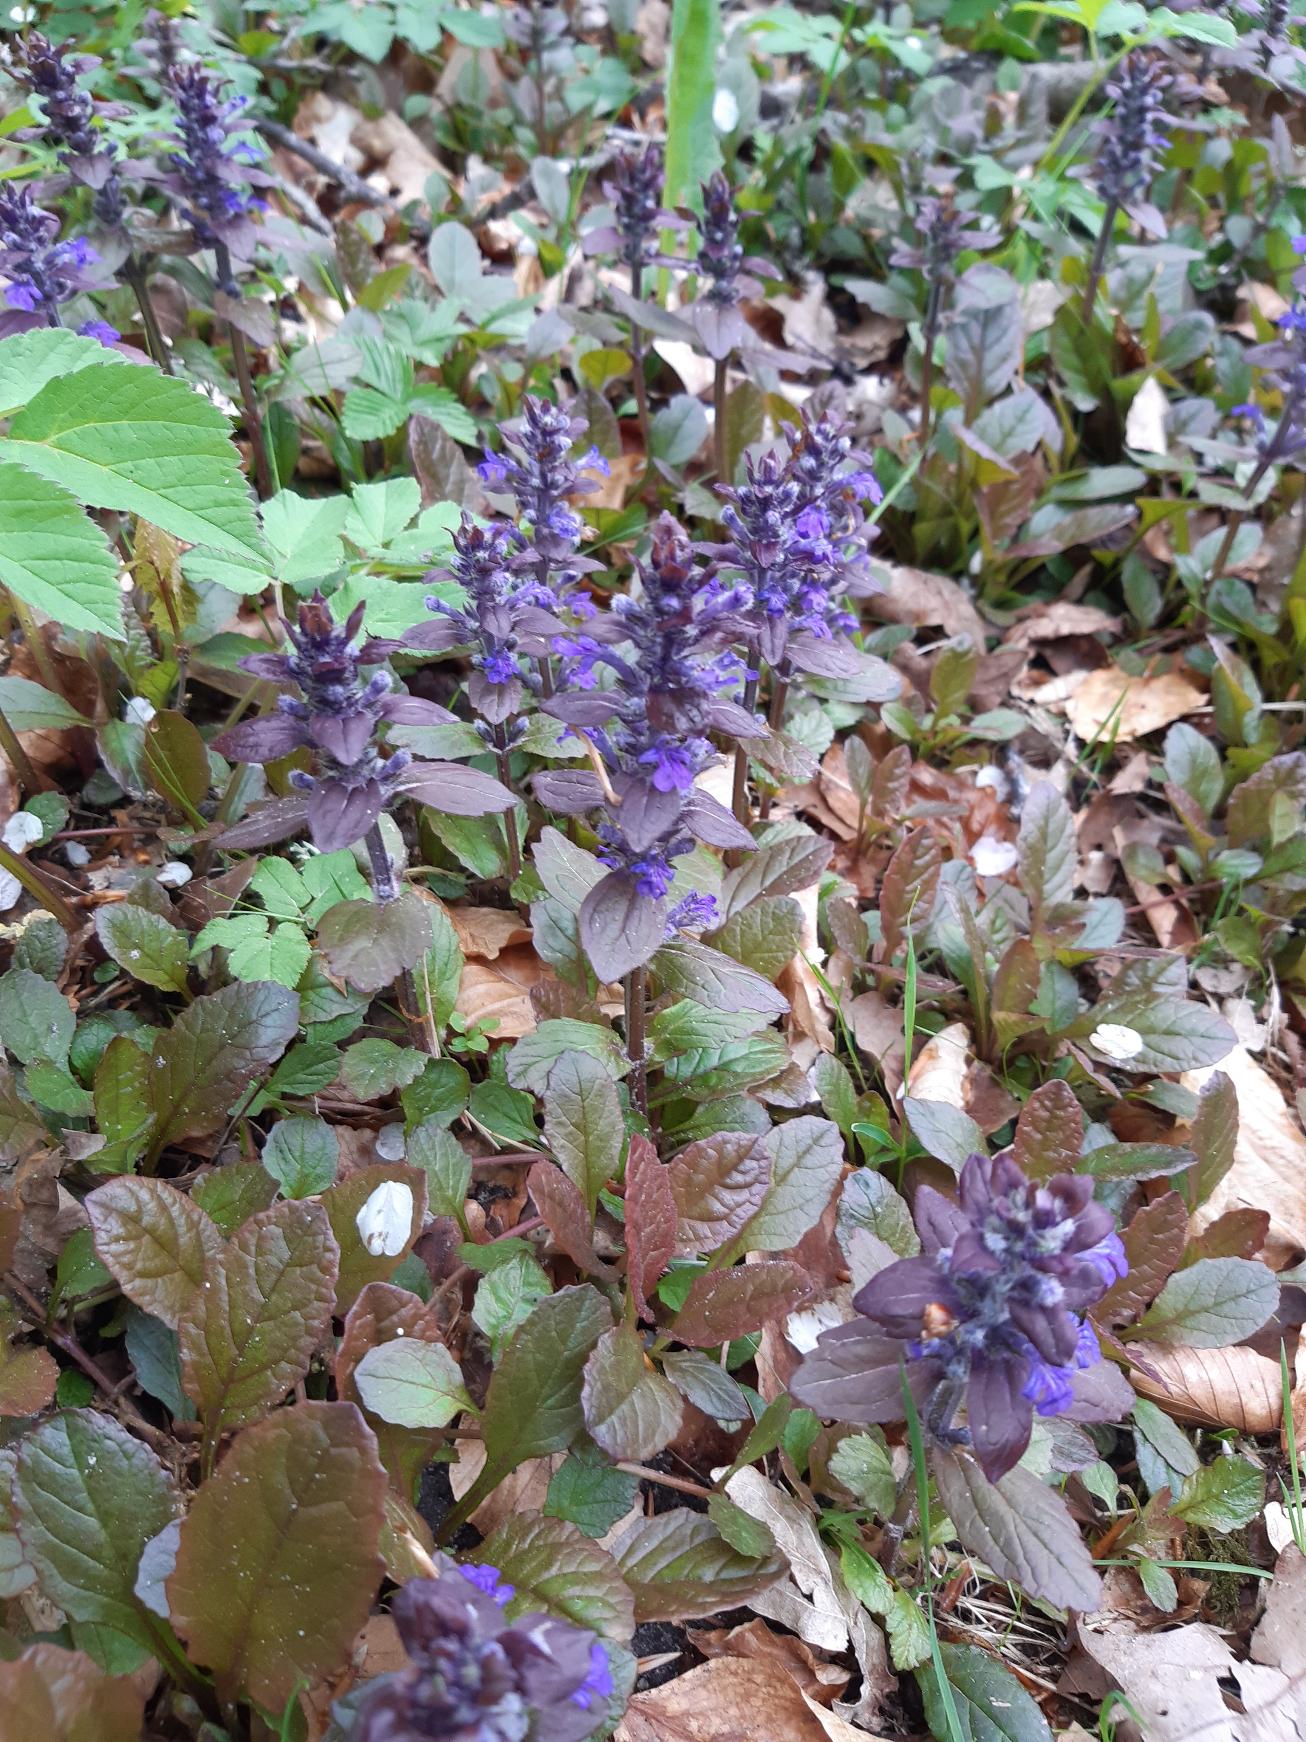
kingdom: Plantae
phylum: Tracheophyta
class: Magnoliopsida
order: Lamiales
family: Lamiaceae
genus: Ajuga
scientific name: Ajuga reptans
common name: Krybende læbeløs
